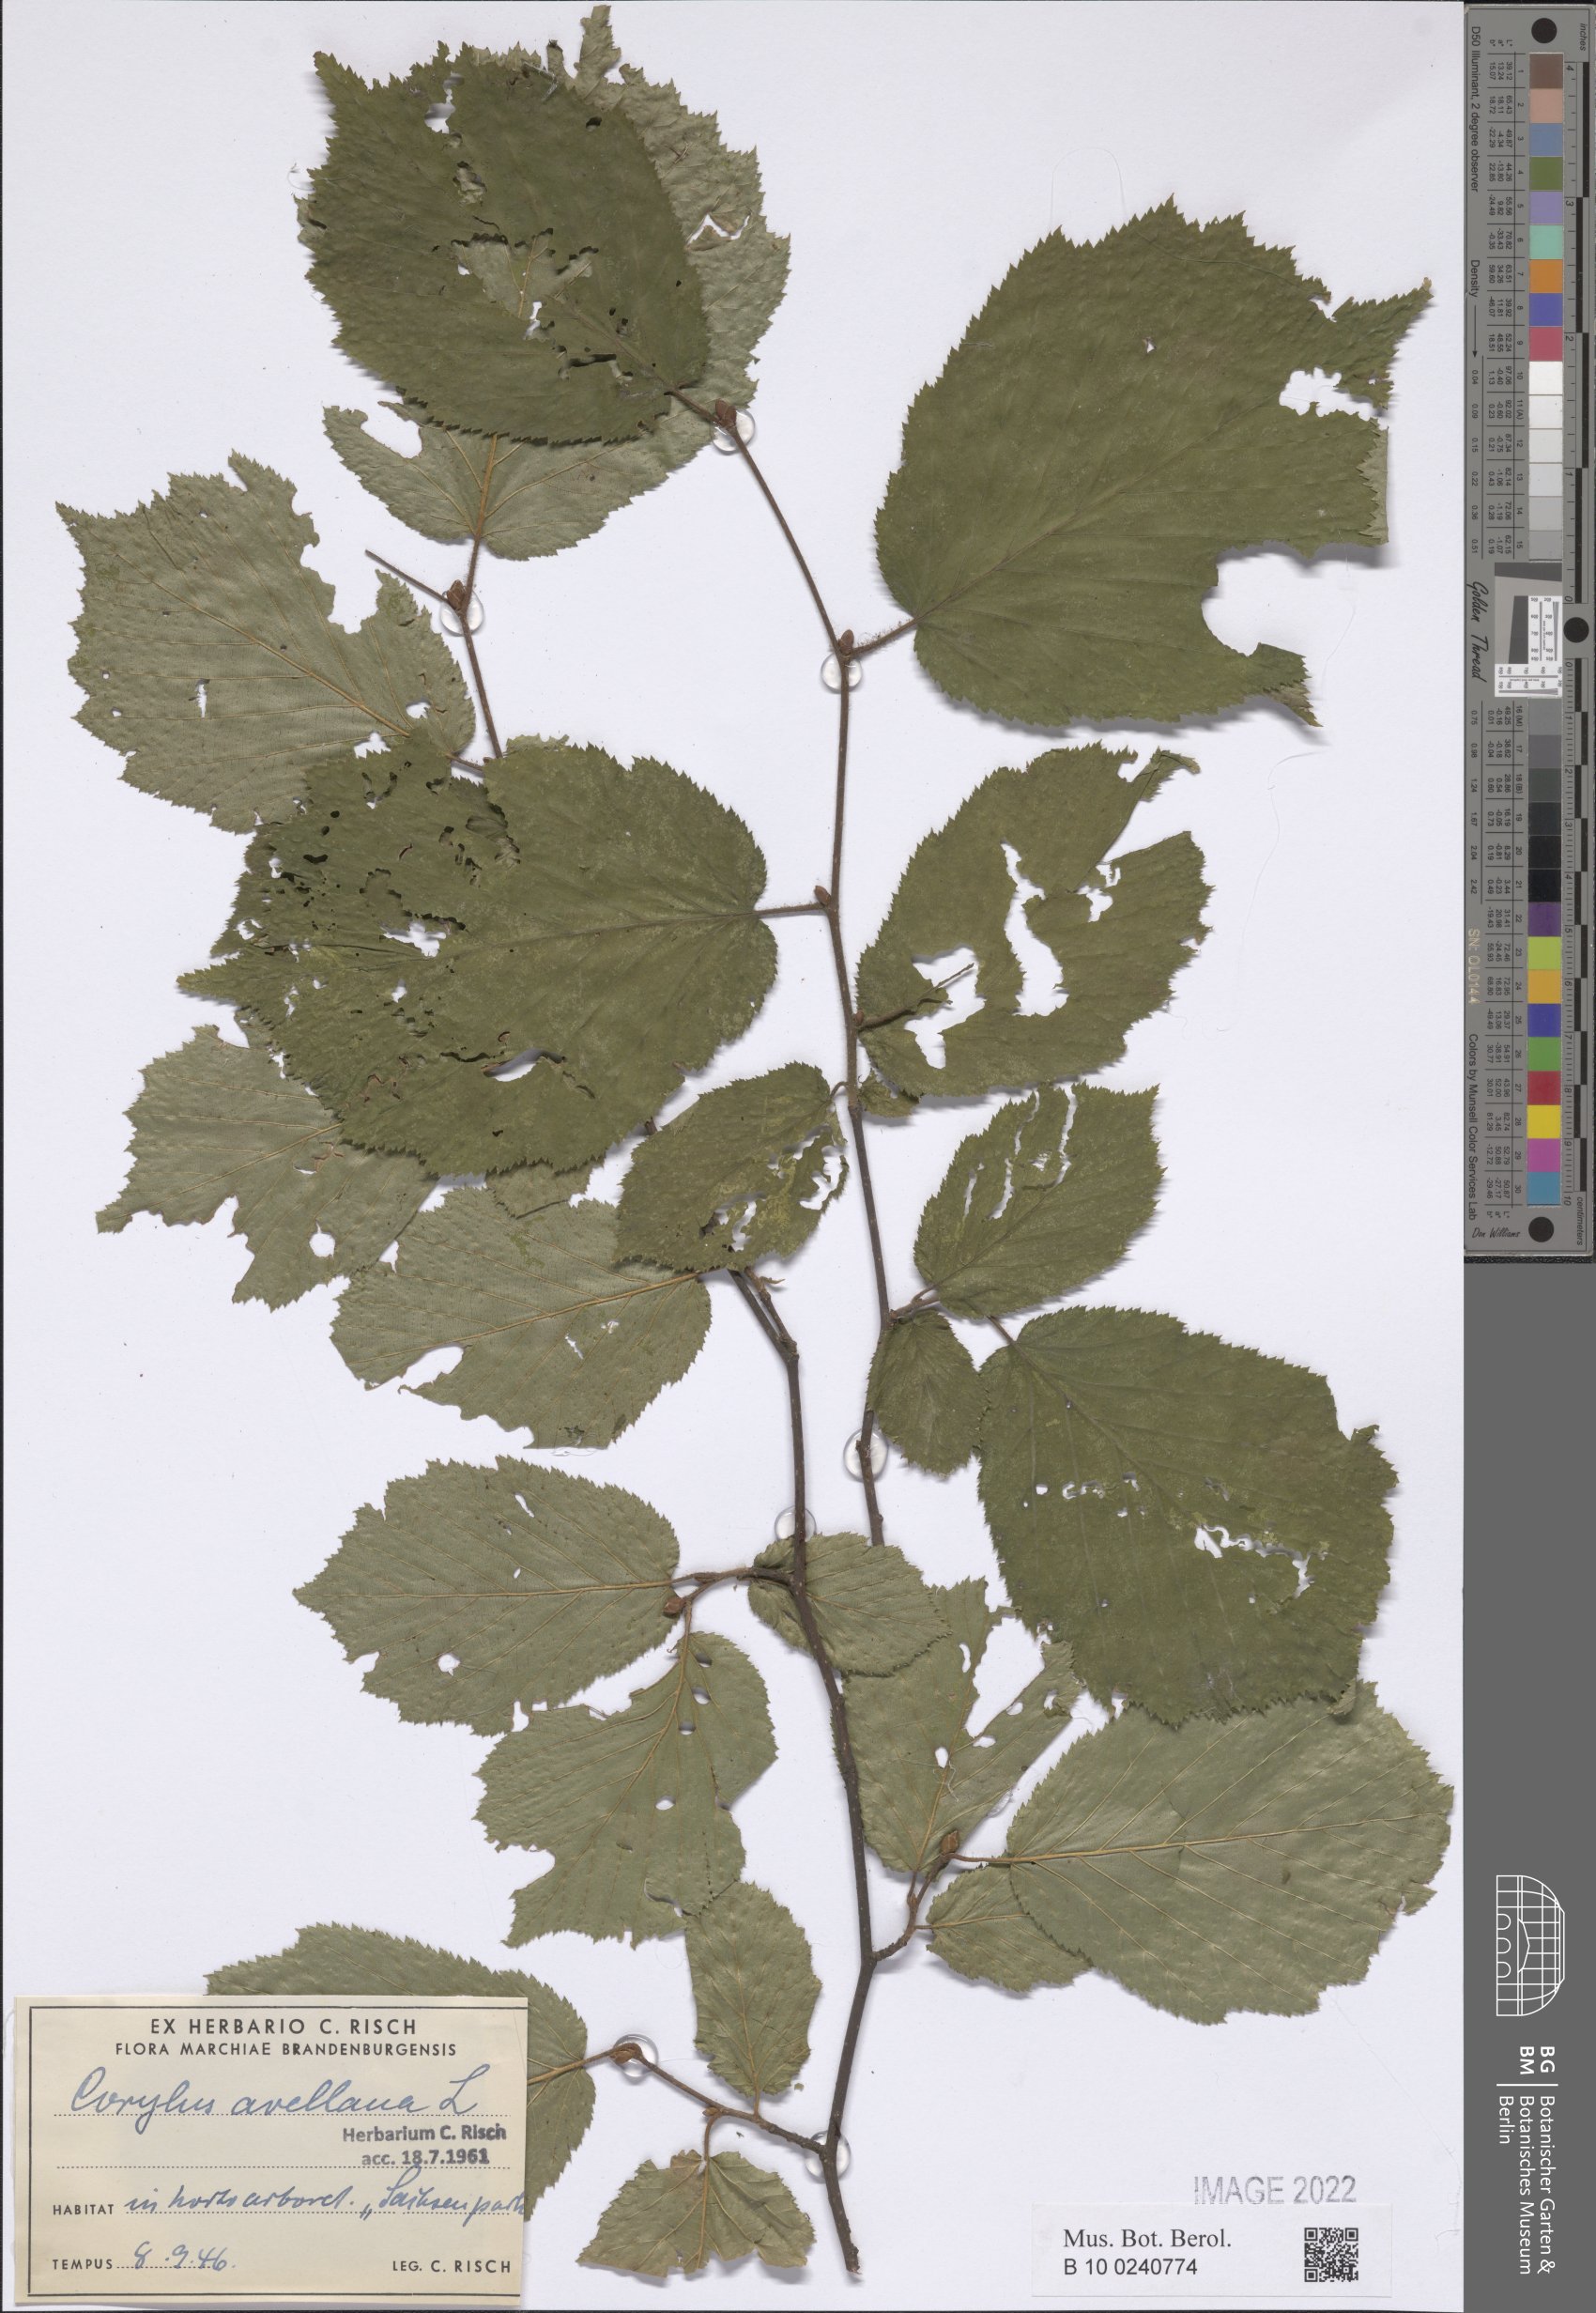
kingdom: Plantae
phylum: Tracheophyta
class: Liliopsida
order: Liliales
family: Liliaceae
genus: Fritillaria
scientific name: Fritillaria imperialis
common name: Imperial fritillary
